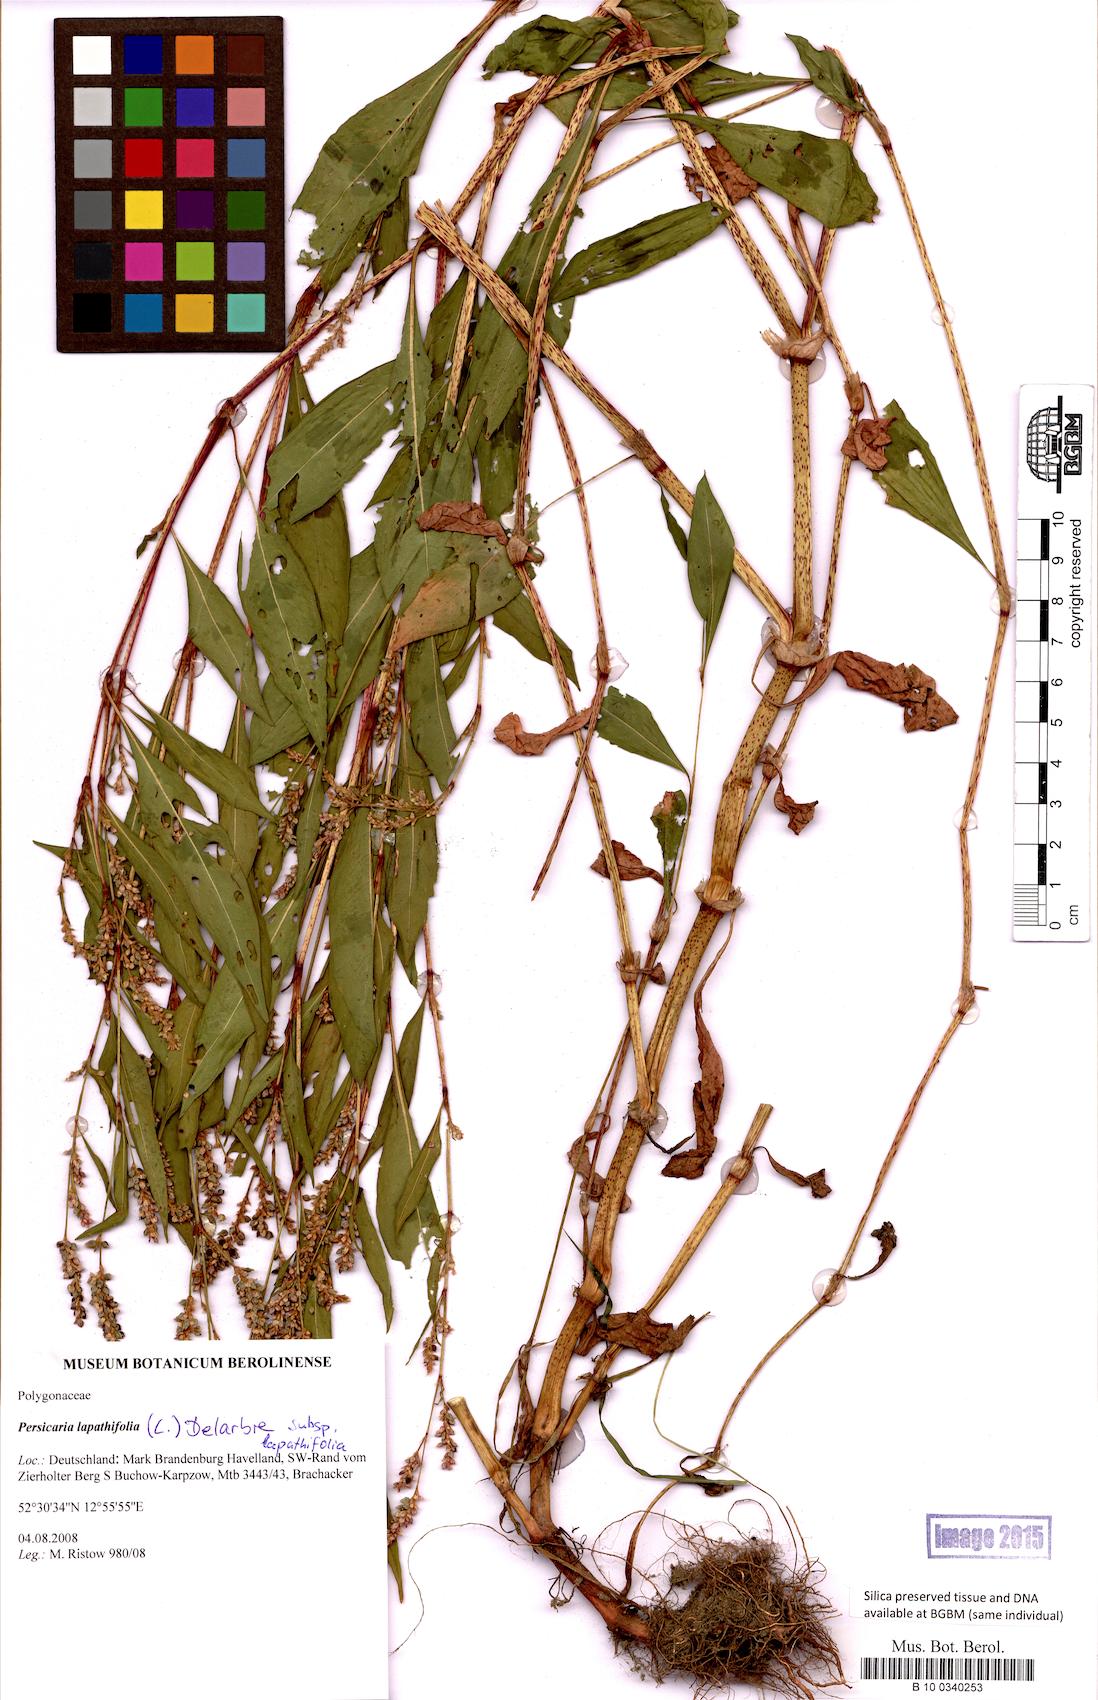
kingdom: Plantae
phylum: Tracheophyta
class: Magnoliopsida
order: Caryophyllales
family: Polygonaceae
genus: Persicaria
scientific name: Persicaria lapathifolia
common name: Curlytop knotweed
